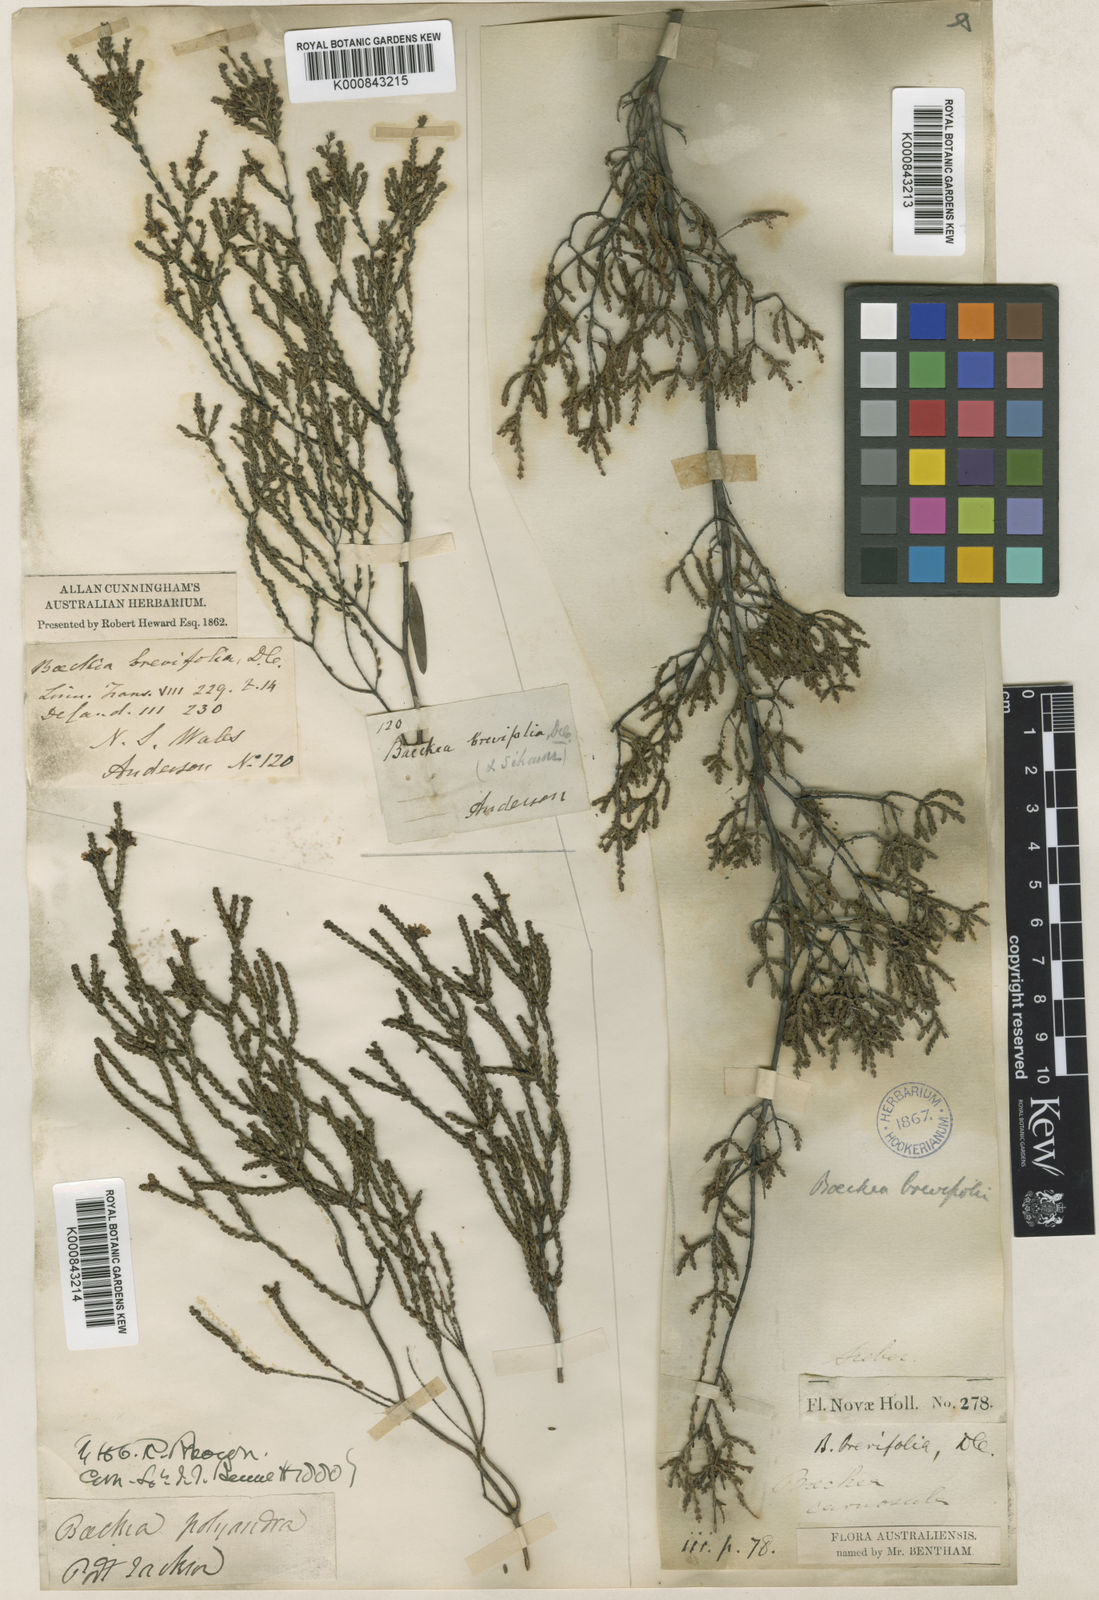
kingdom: Plantae
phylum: Tracheophyta
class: Magnoliopsida
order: Myrtales
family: Myrtaceae
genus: Baeckea
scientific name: Baeckea brevifolia
